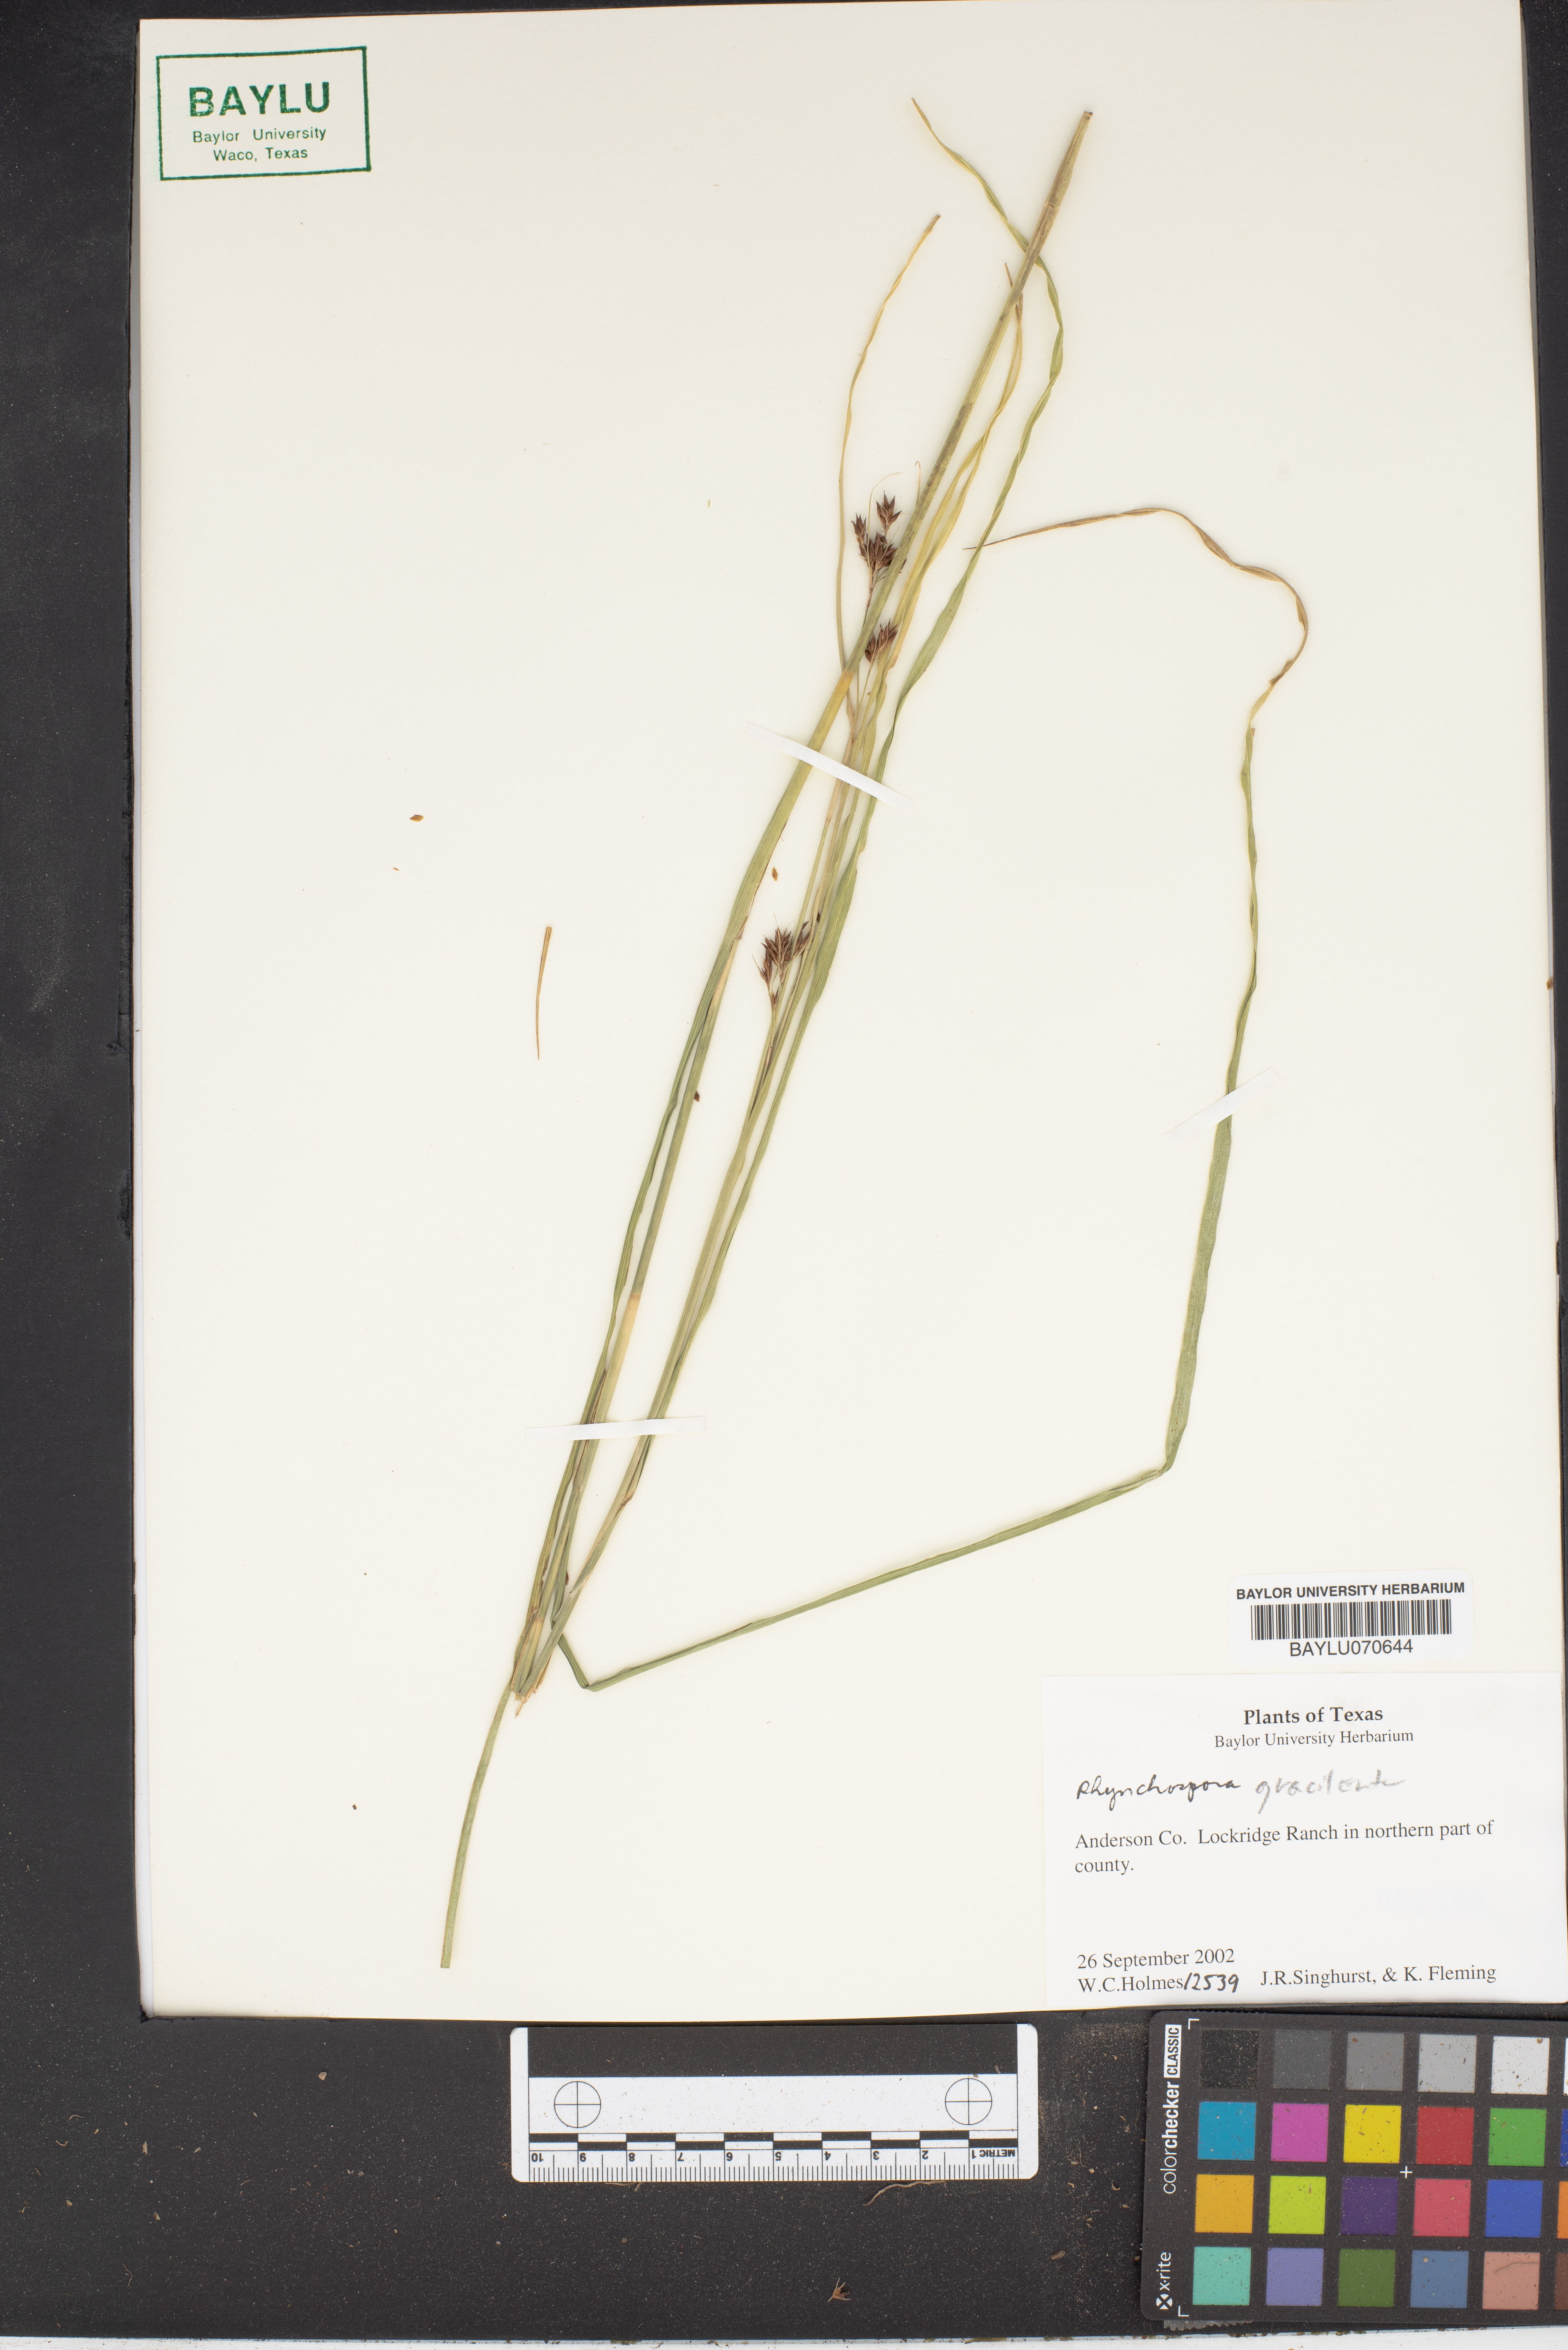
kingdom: Plantae
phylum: Tracheophyta
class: Liliopsida
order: Poales
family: Cyperaceae
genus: Rhynchospora
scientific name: Rhynchospora gracilenta
